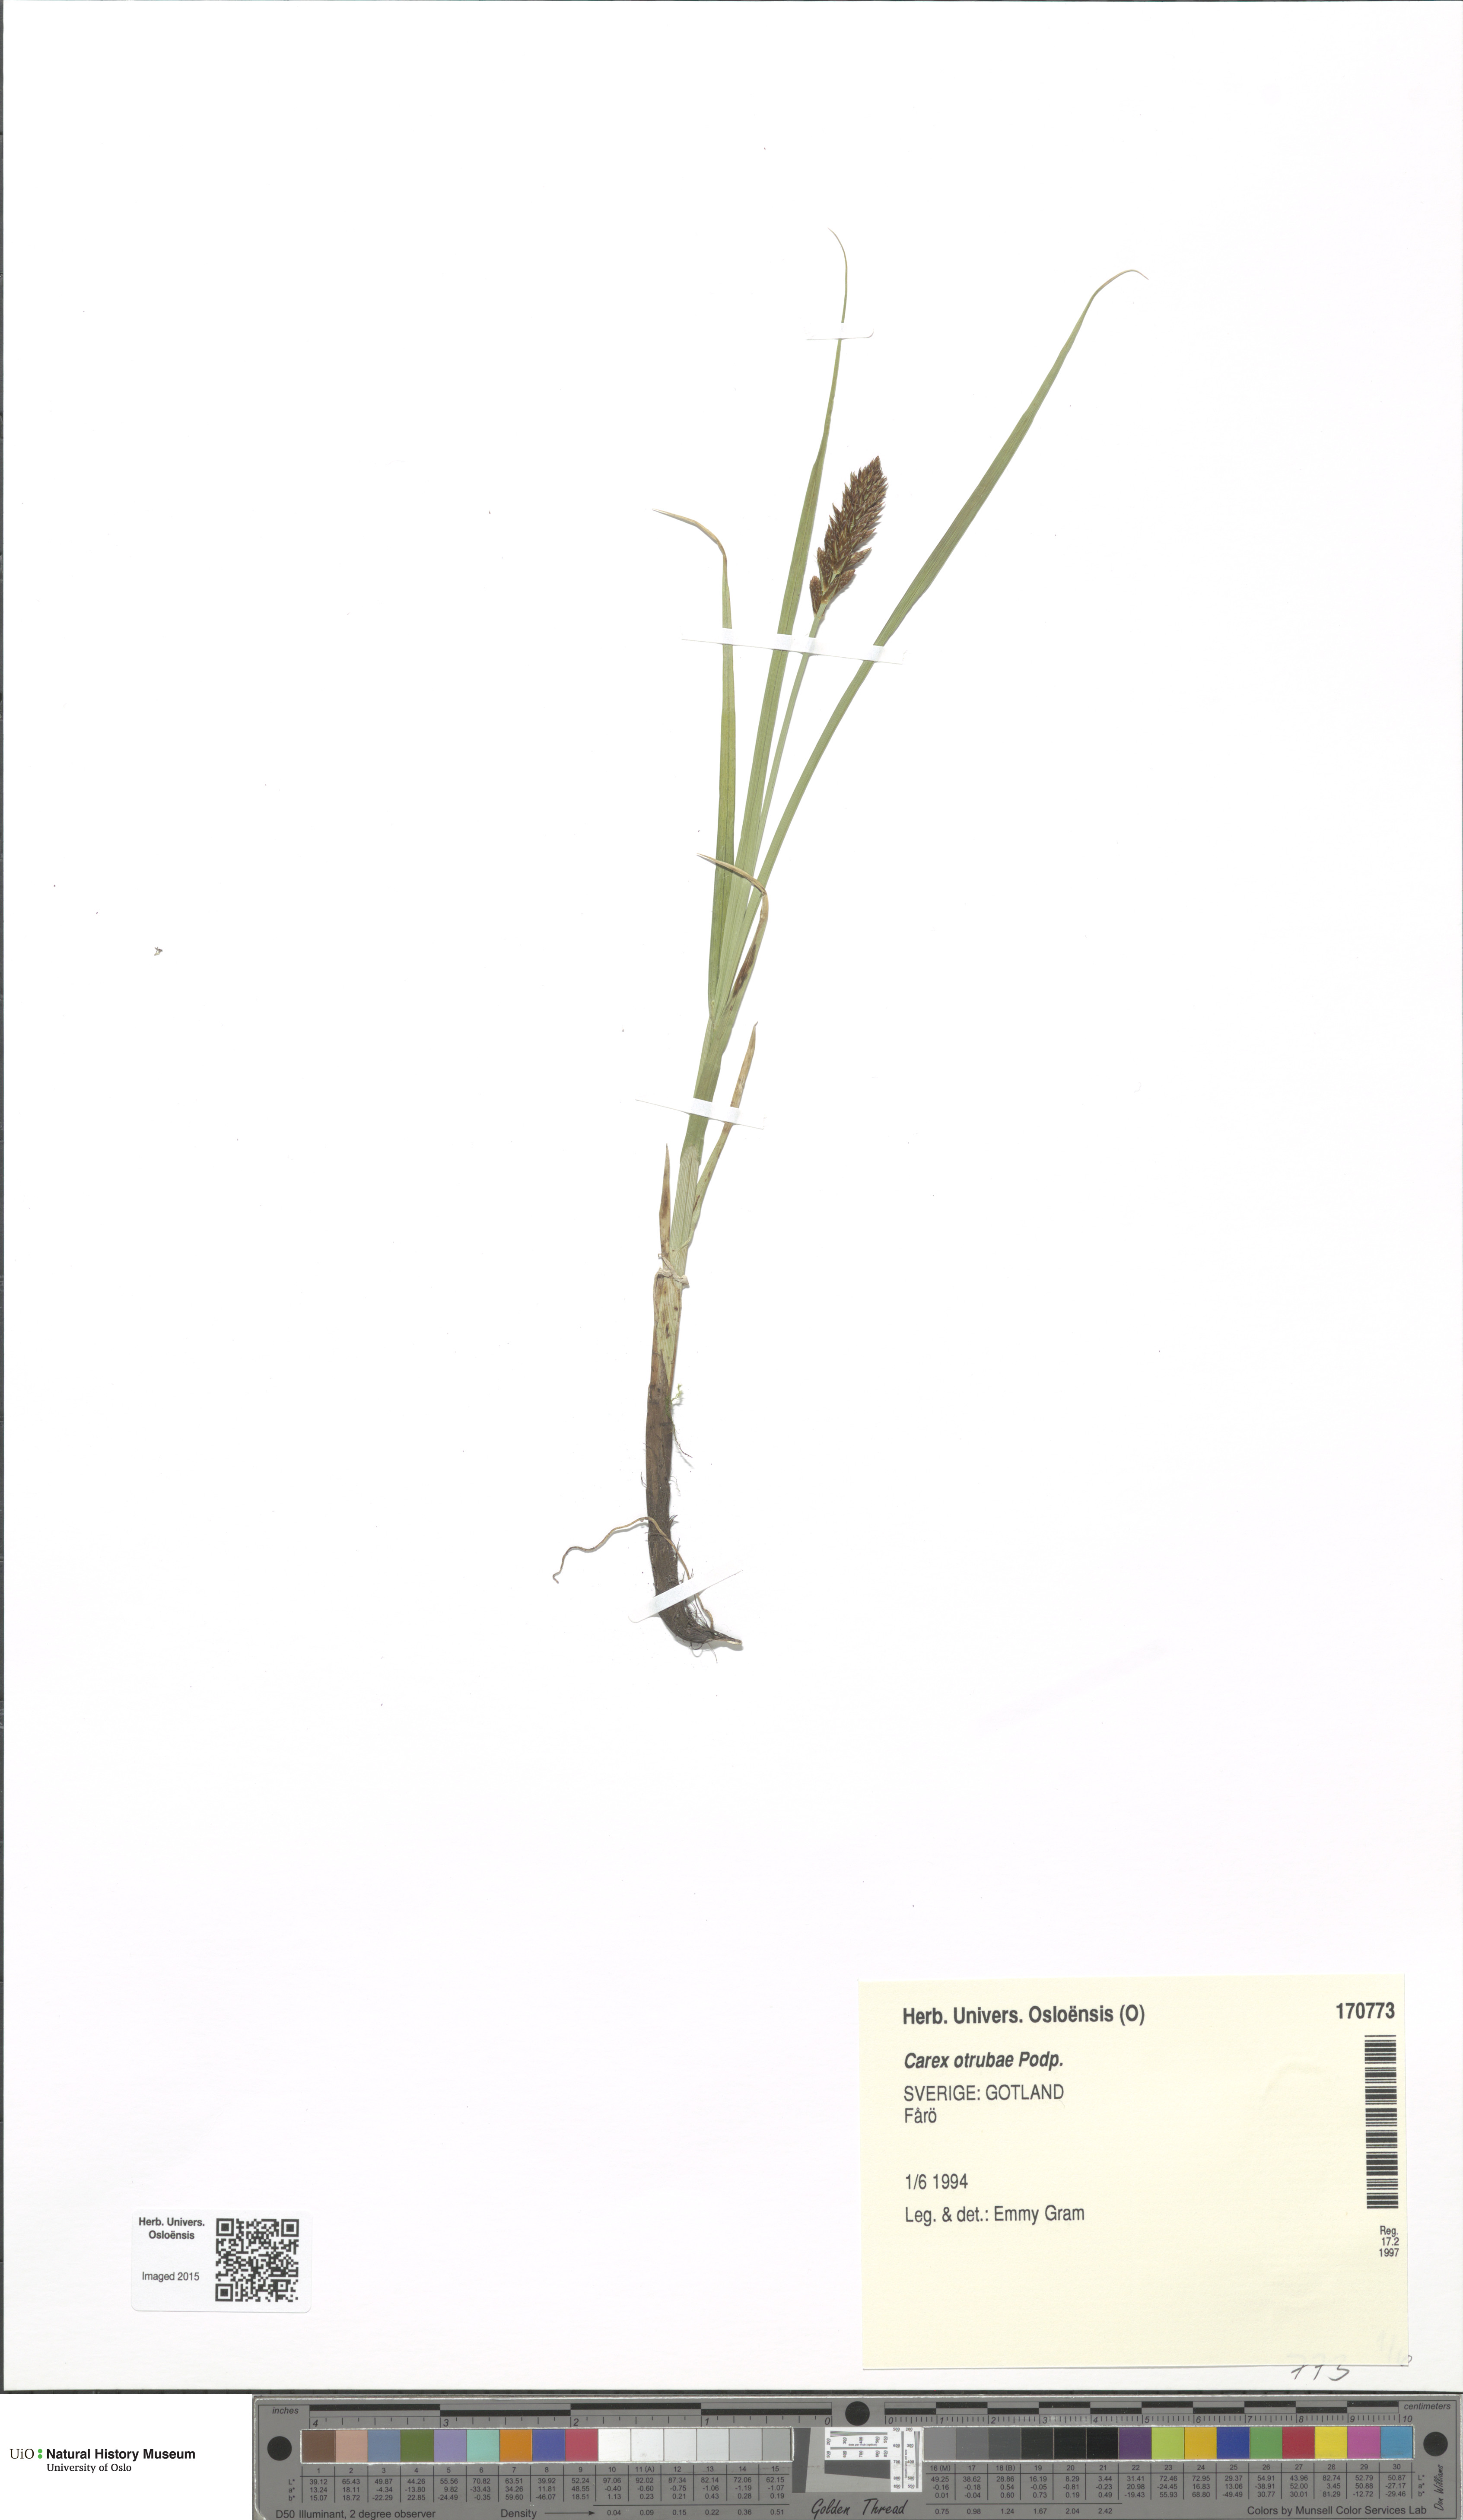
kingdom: Plantae
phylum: Tracheophyta
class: Liliopsida
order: Poales
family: Cyperaceae
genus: Carex
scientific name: Carex otrubae
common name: False fox-sedge
